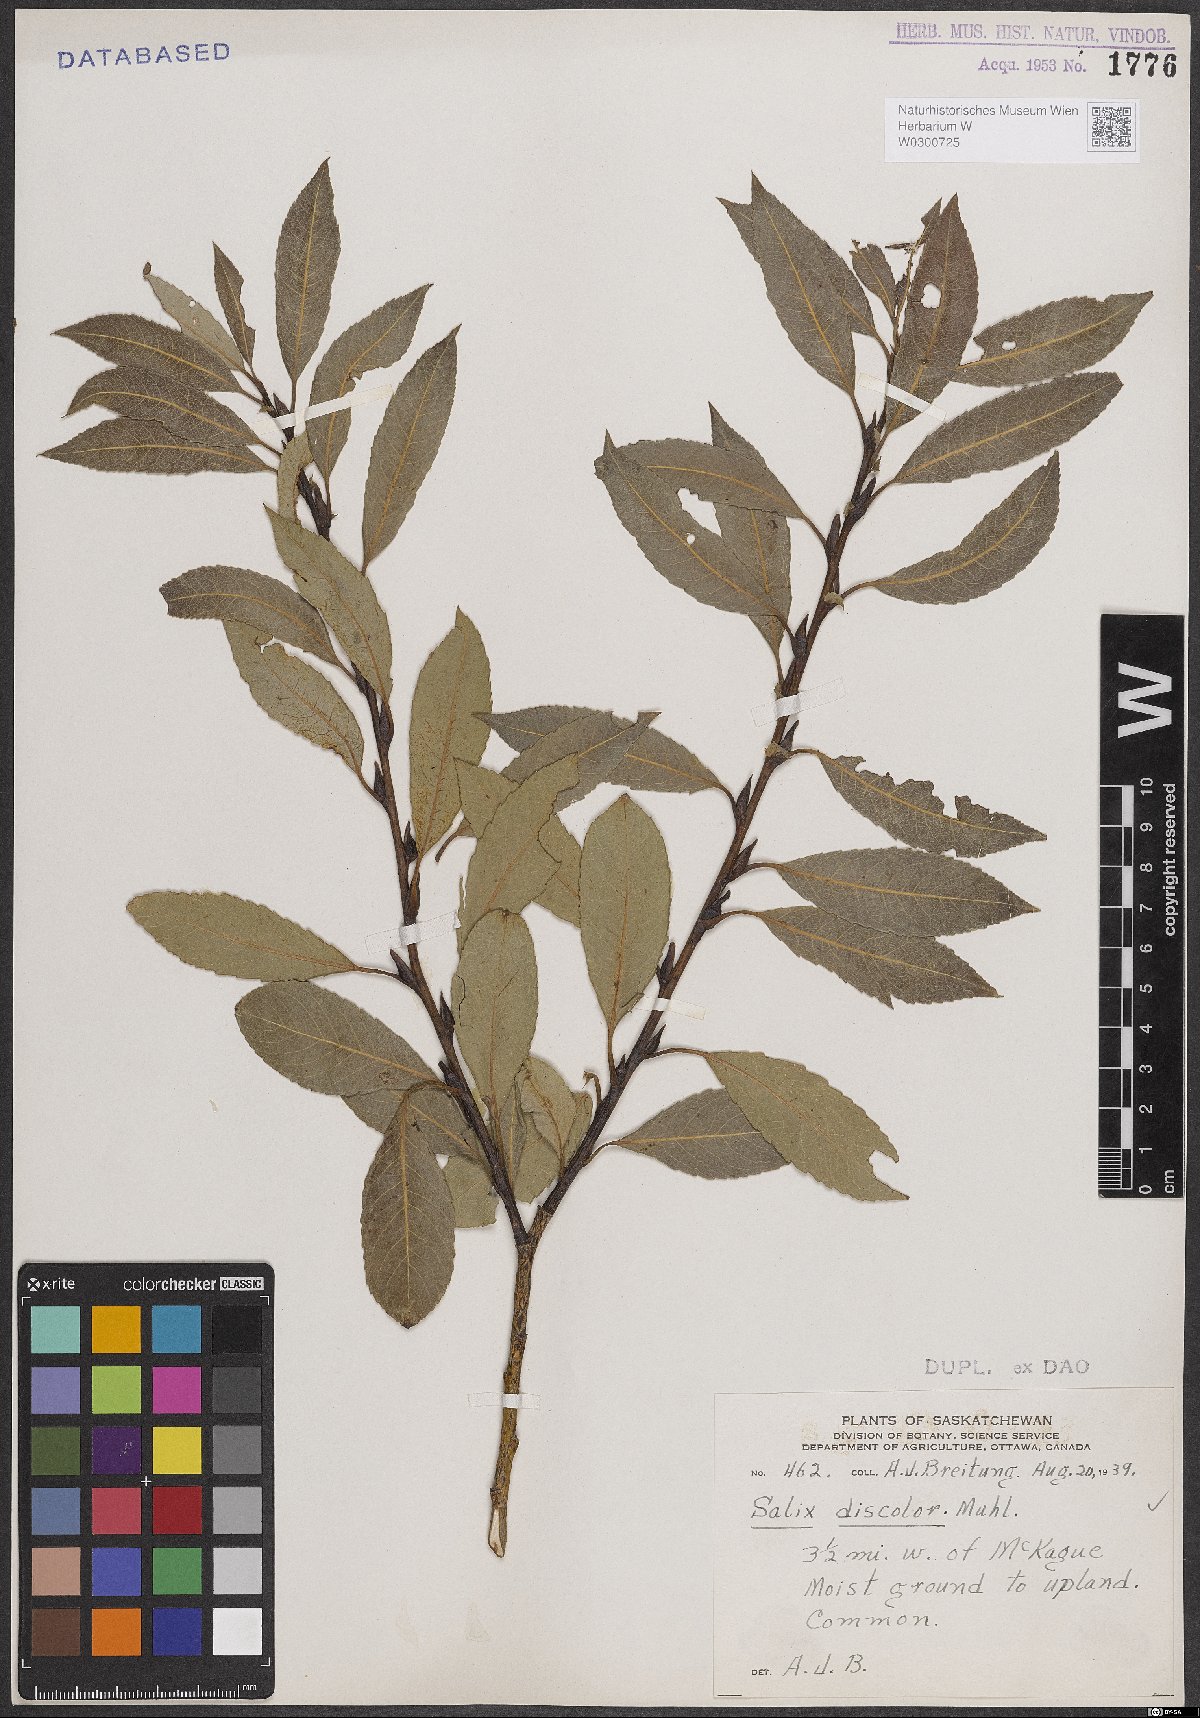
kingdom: Plantae
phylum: Tracheophyta
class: Magnoliopsida
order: Malpighiales
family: Salicaceae
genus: Salix
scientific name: Salix discolor
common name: Glaucous willow
